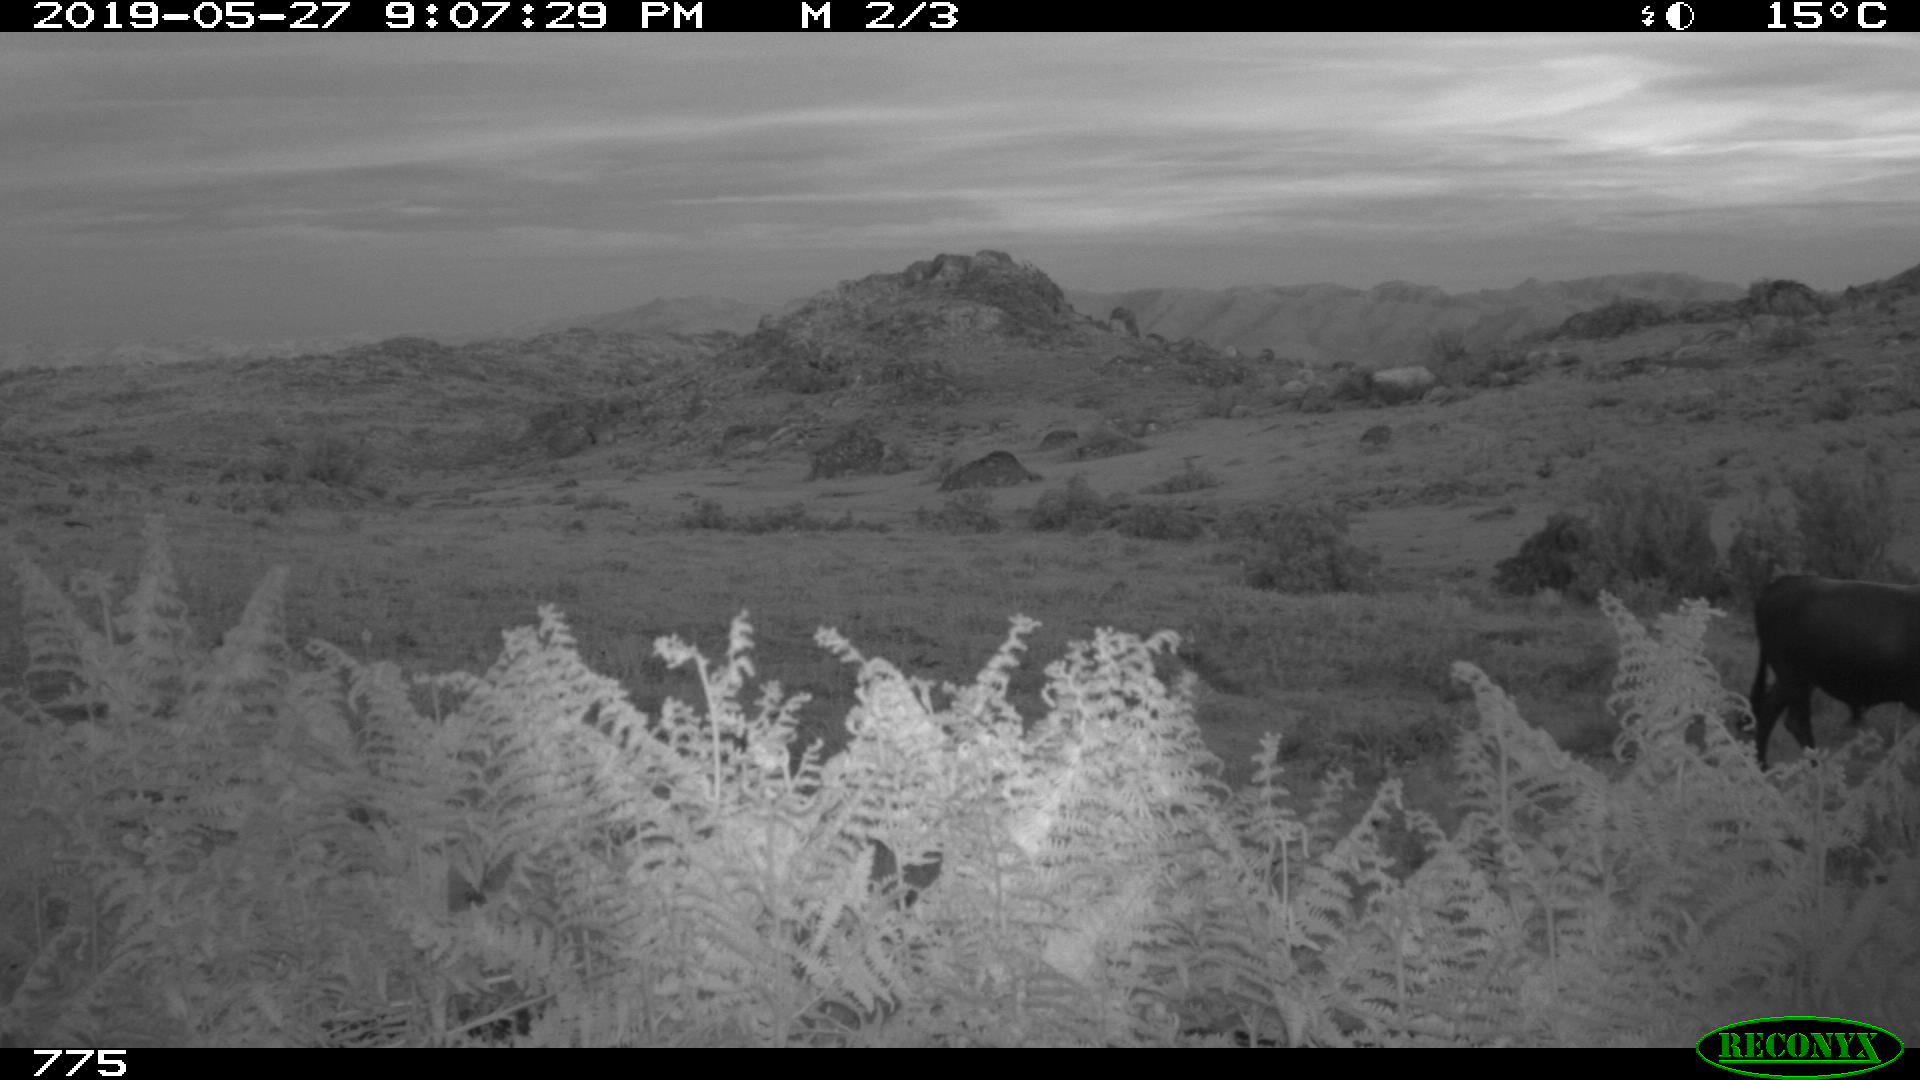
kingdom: Animalia
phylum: Chordata
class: Mammalia
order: Perissodactyla
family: Equidae
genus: Equus
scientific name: Equus caballus
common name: Horse
